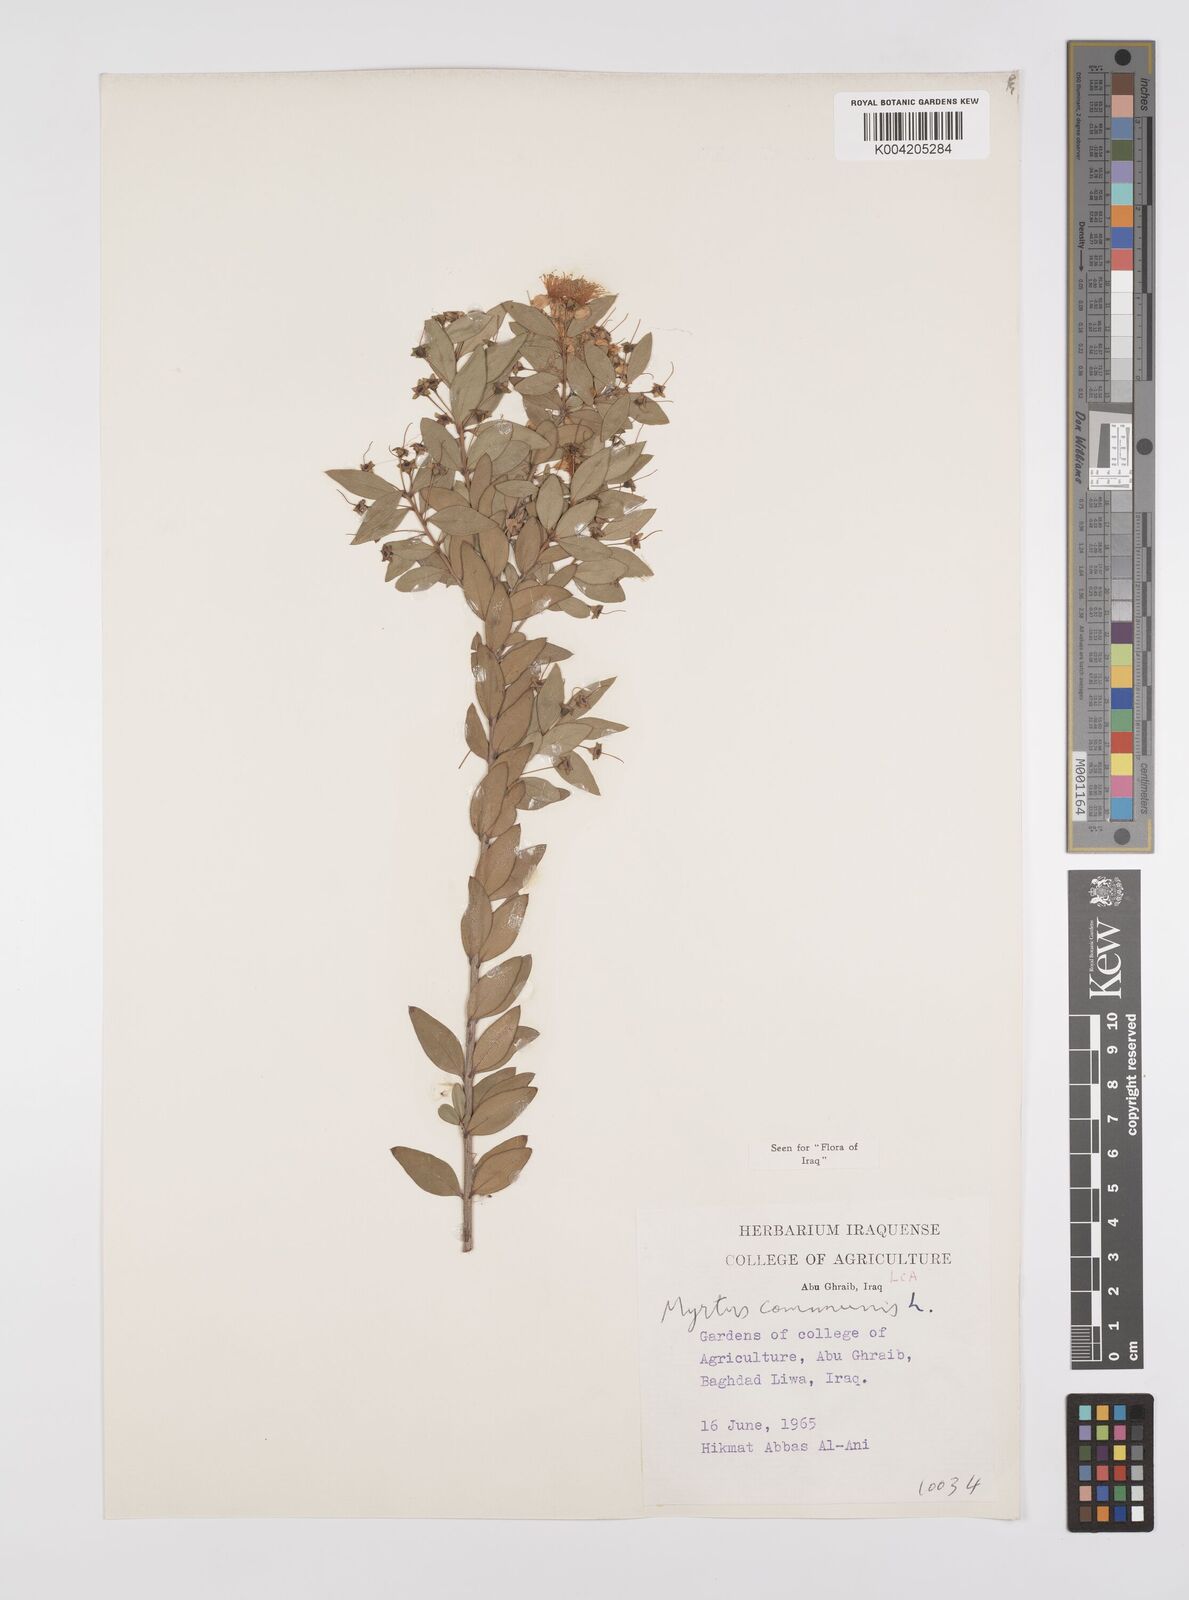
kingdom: Plantae
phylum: Tracheophyta
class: Magnoliopsida
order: Myrtales
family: Myrtaceae
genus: Myrtus
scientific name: Myrtus communis
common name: Myrtle
